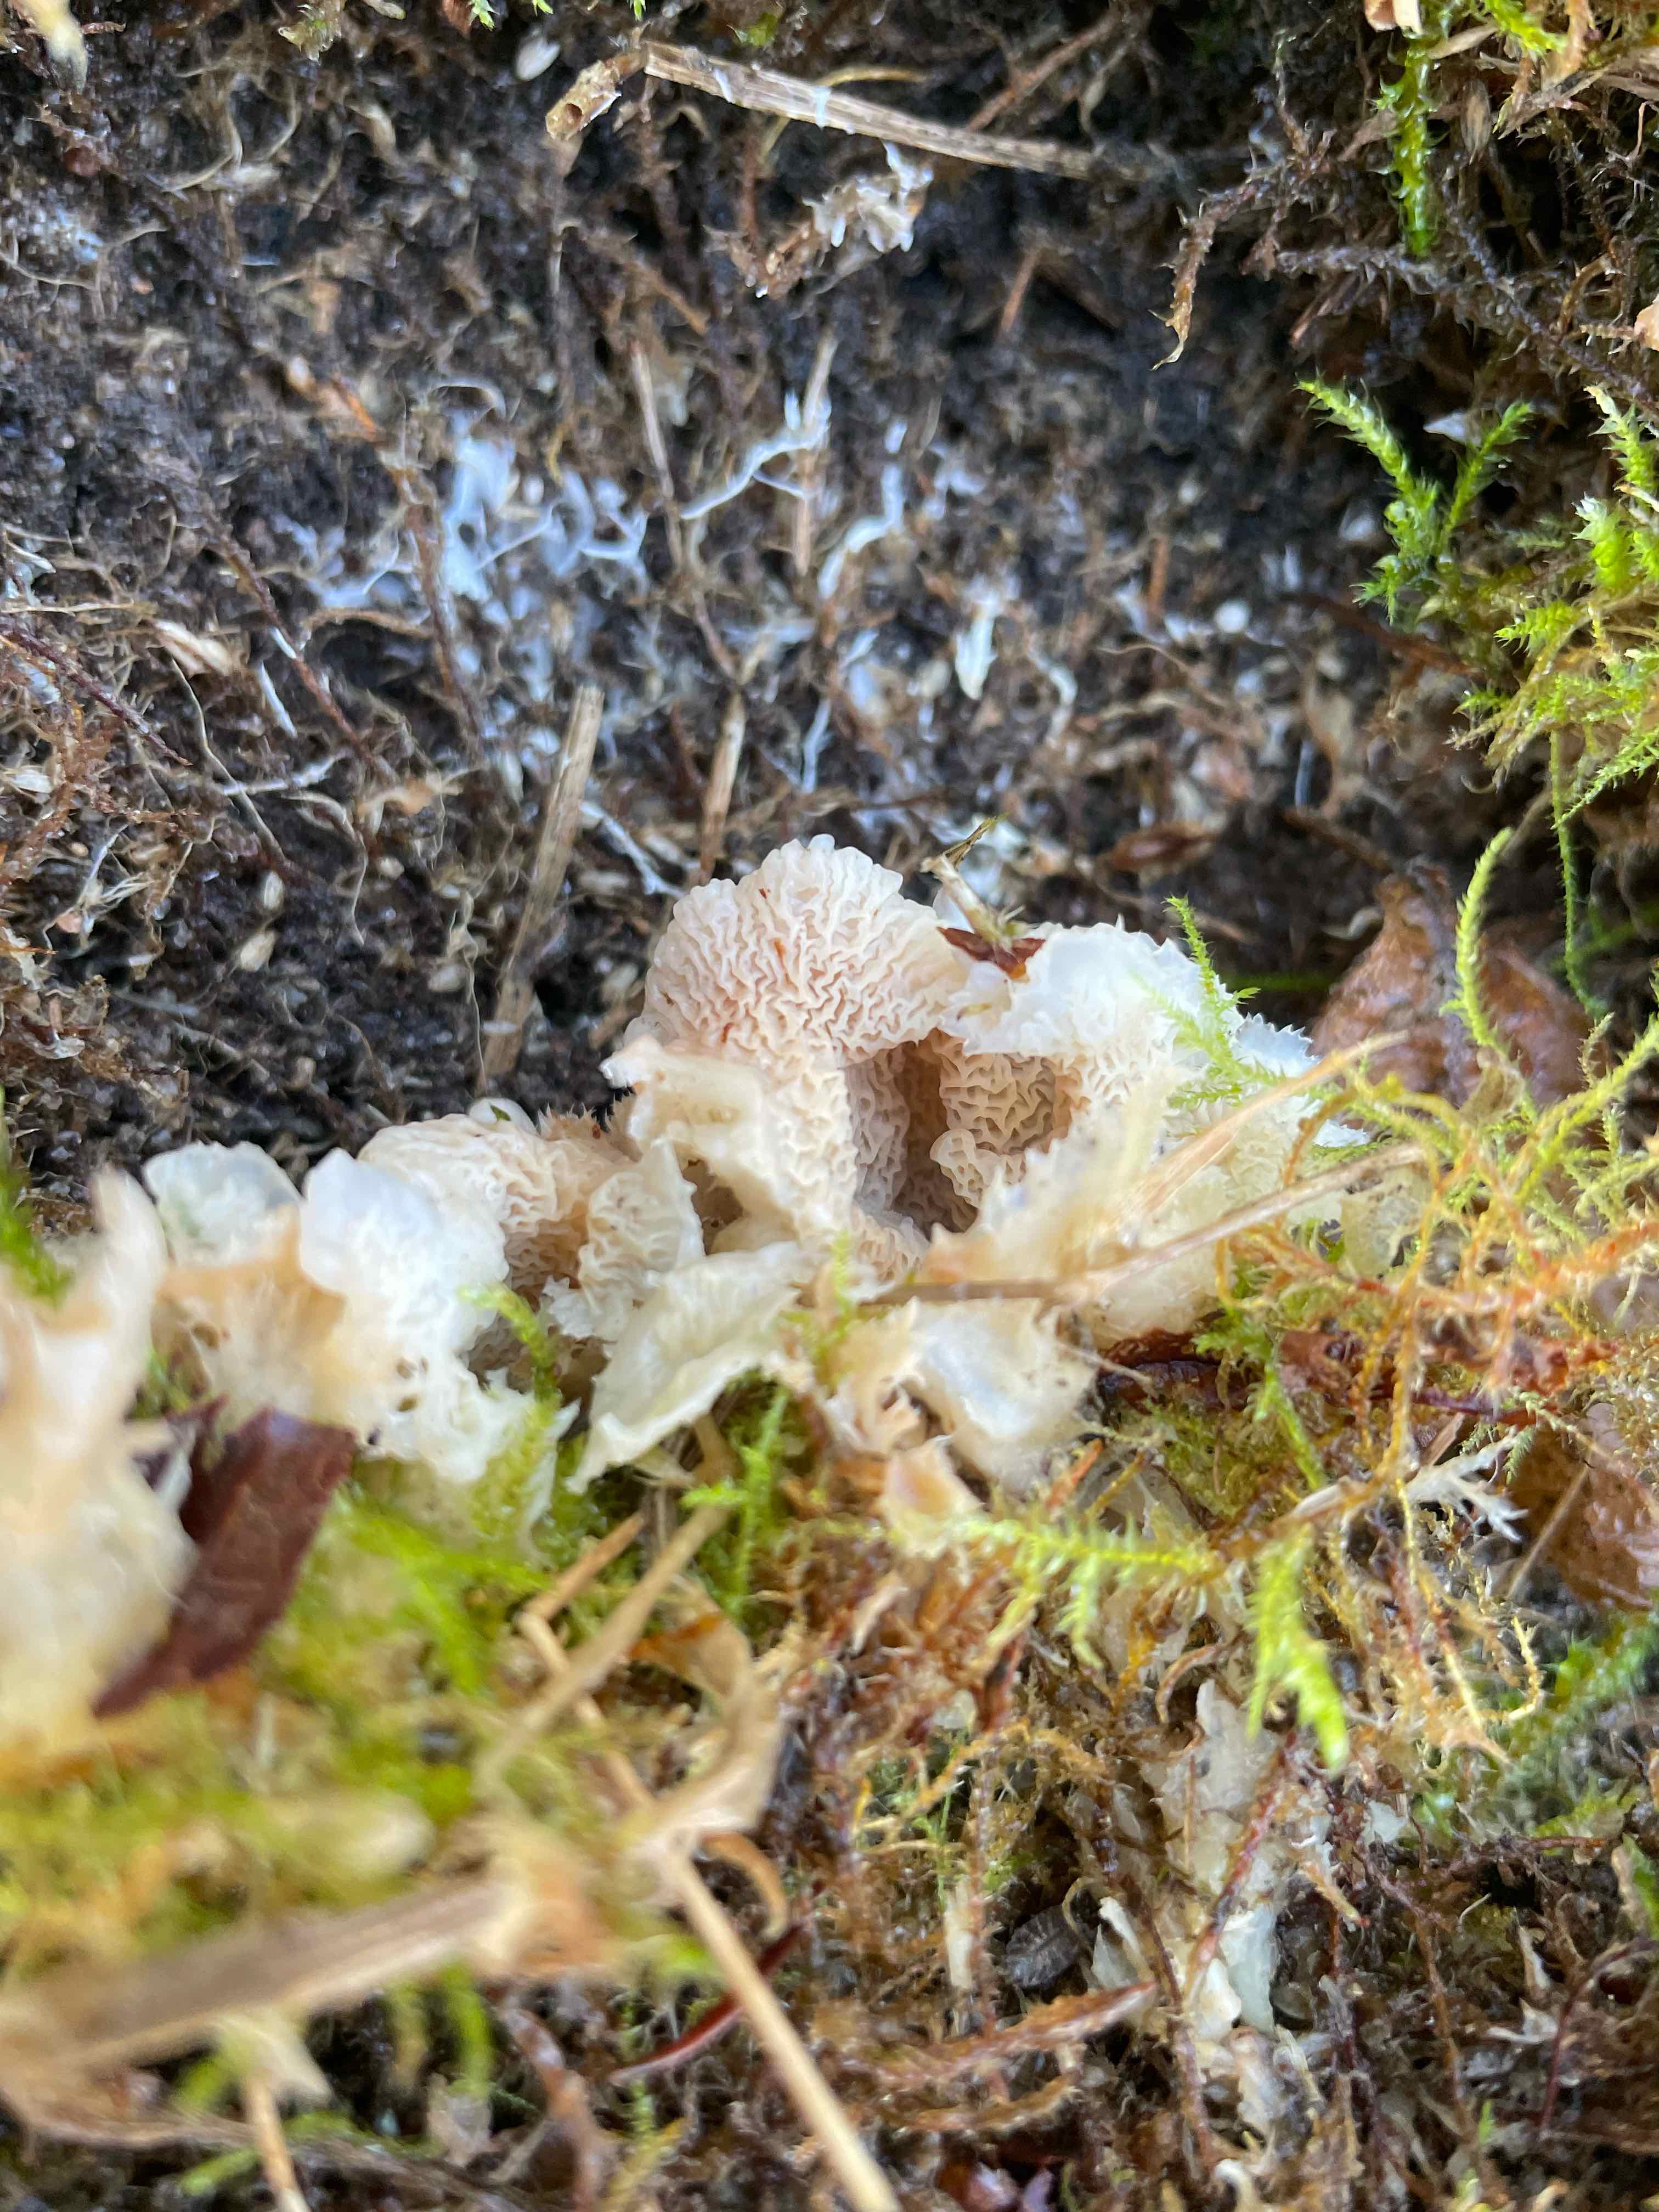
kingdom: Fungi
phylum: Basidiomycota
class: Agaricomycetes
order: Polyporales
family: Meruliaceae
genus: Phlebia
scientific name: Phlebia tremellosa
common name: bævrende åresvamp
